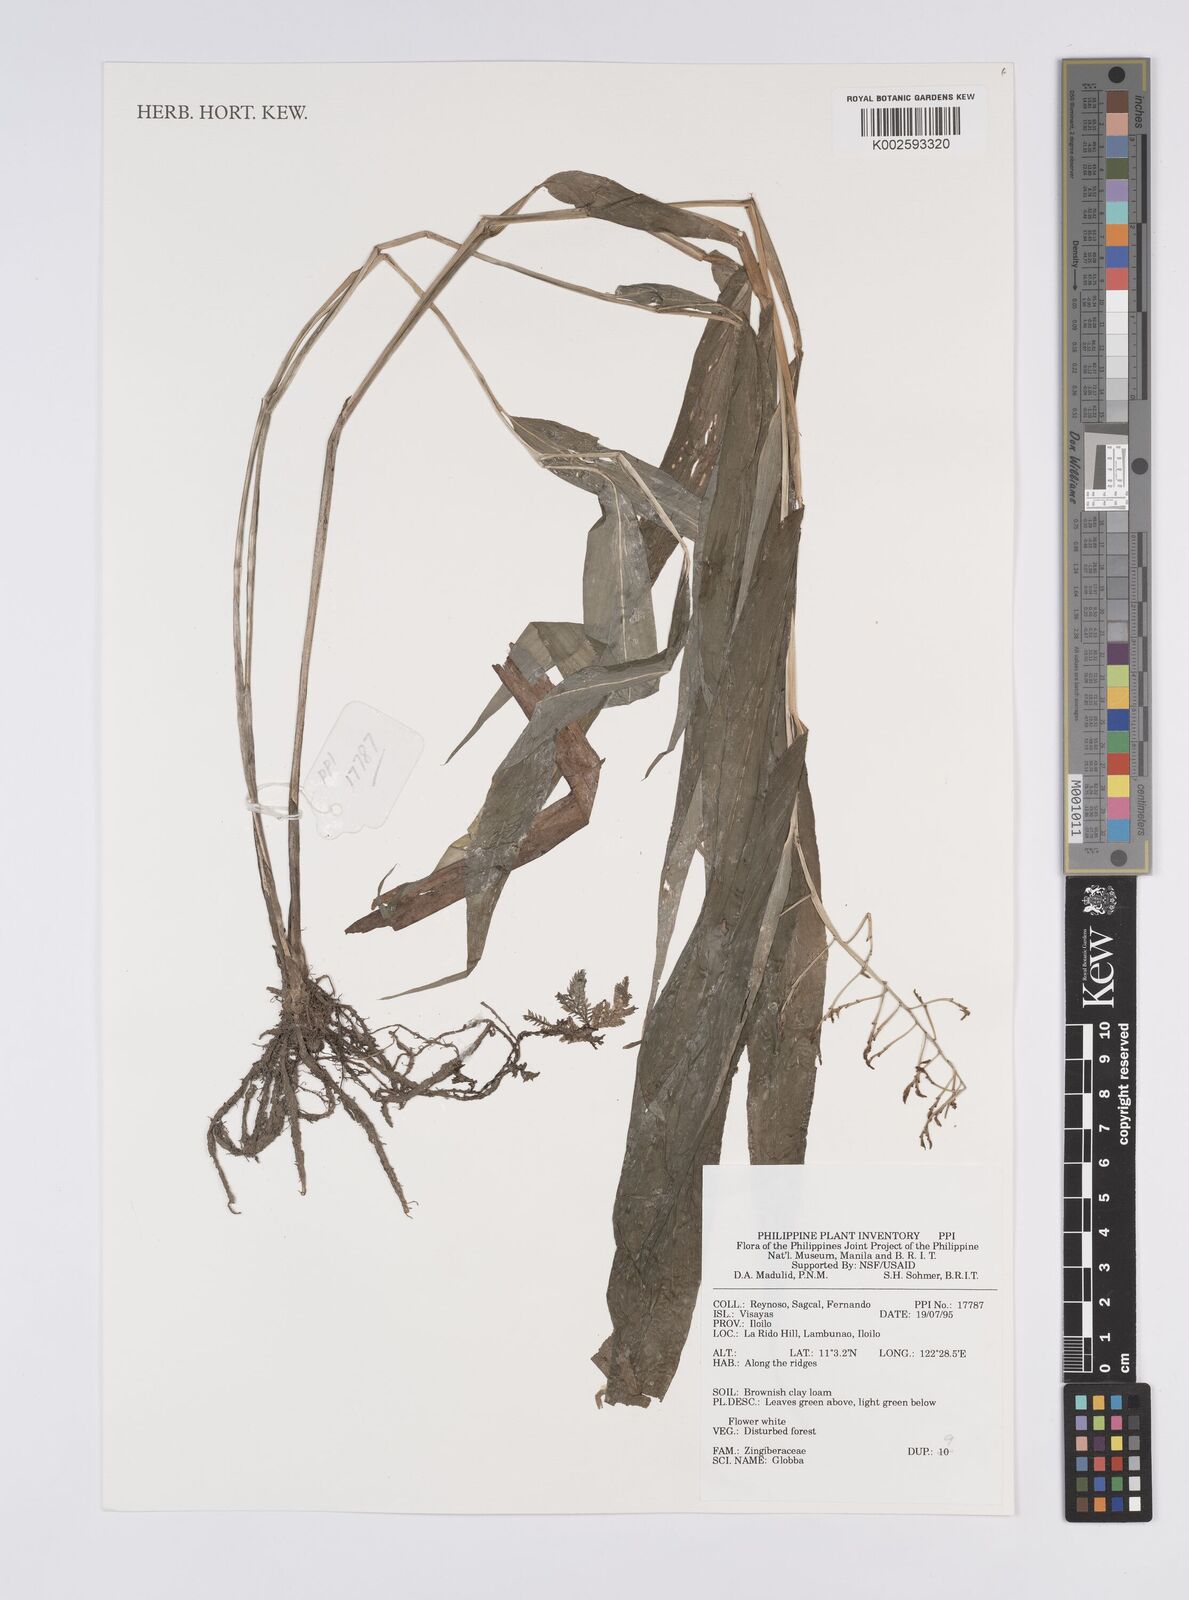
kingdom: Plantae
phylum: Tracheophyta
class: Liliopsida
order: Zingiberales
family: Zingiberaceae
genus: Globba
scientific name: Globba
